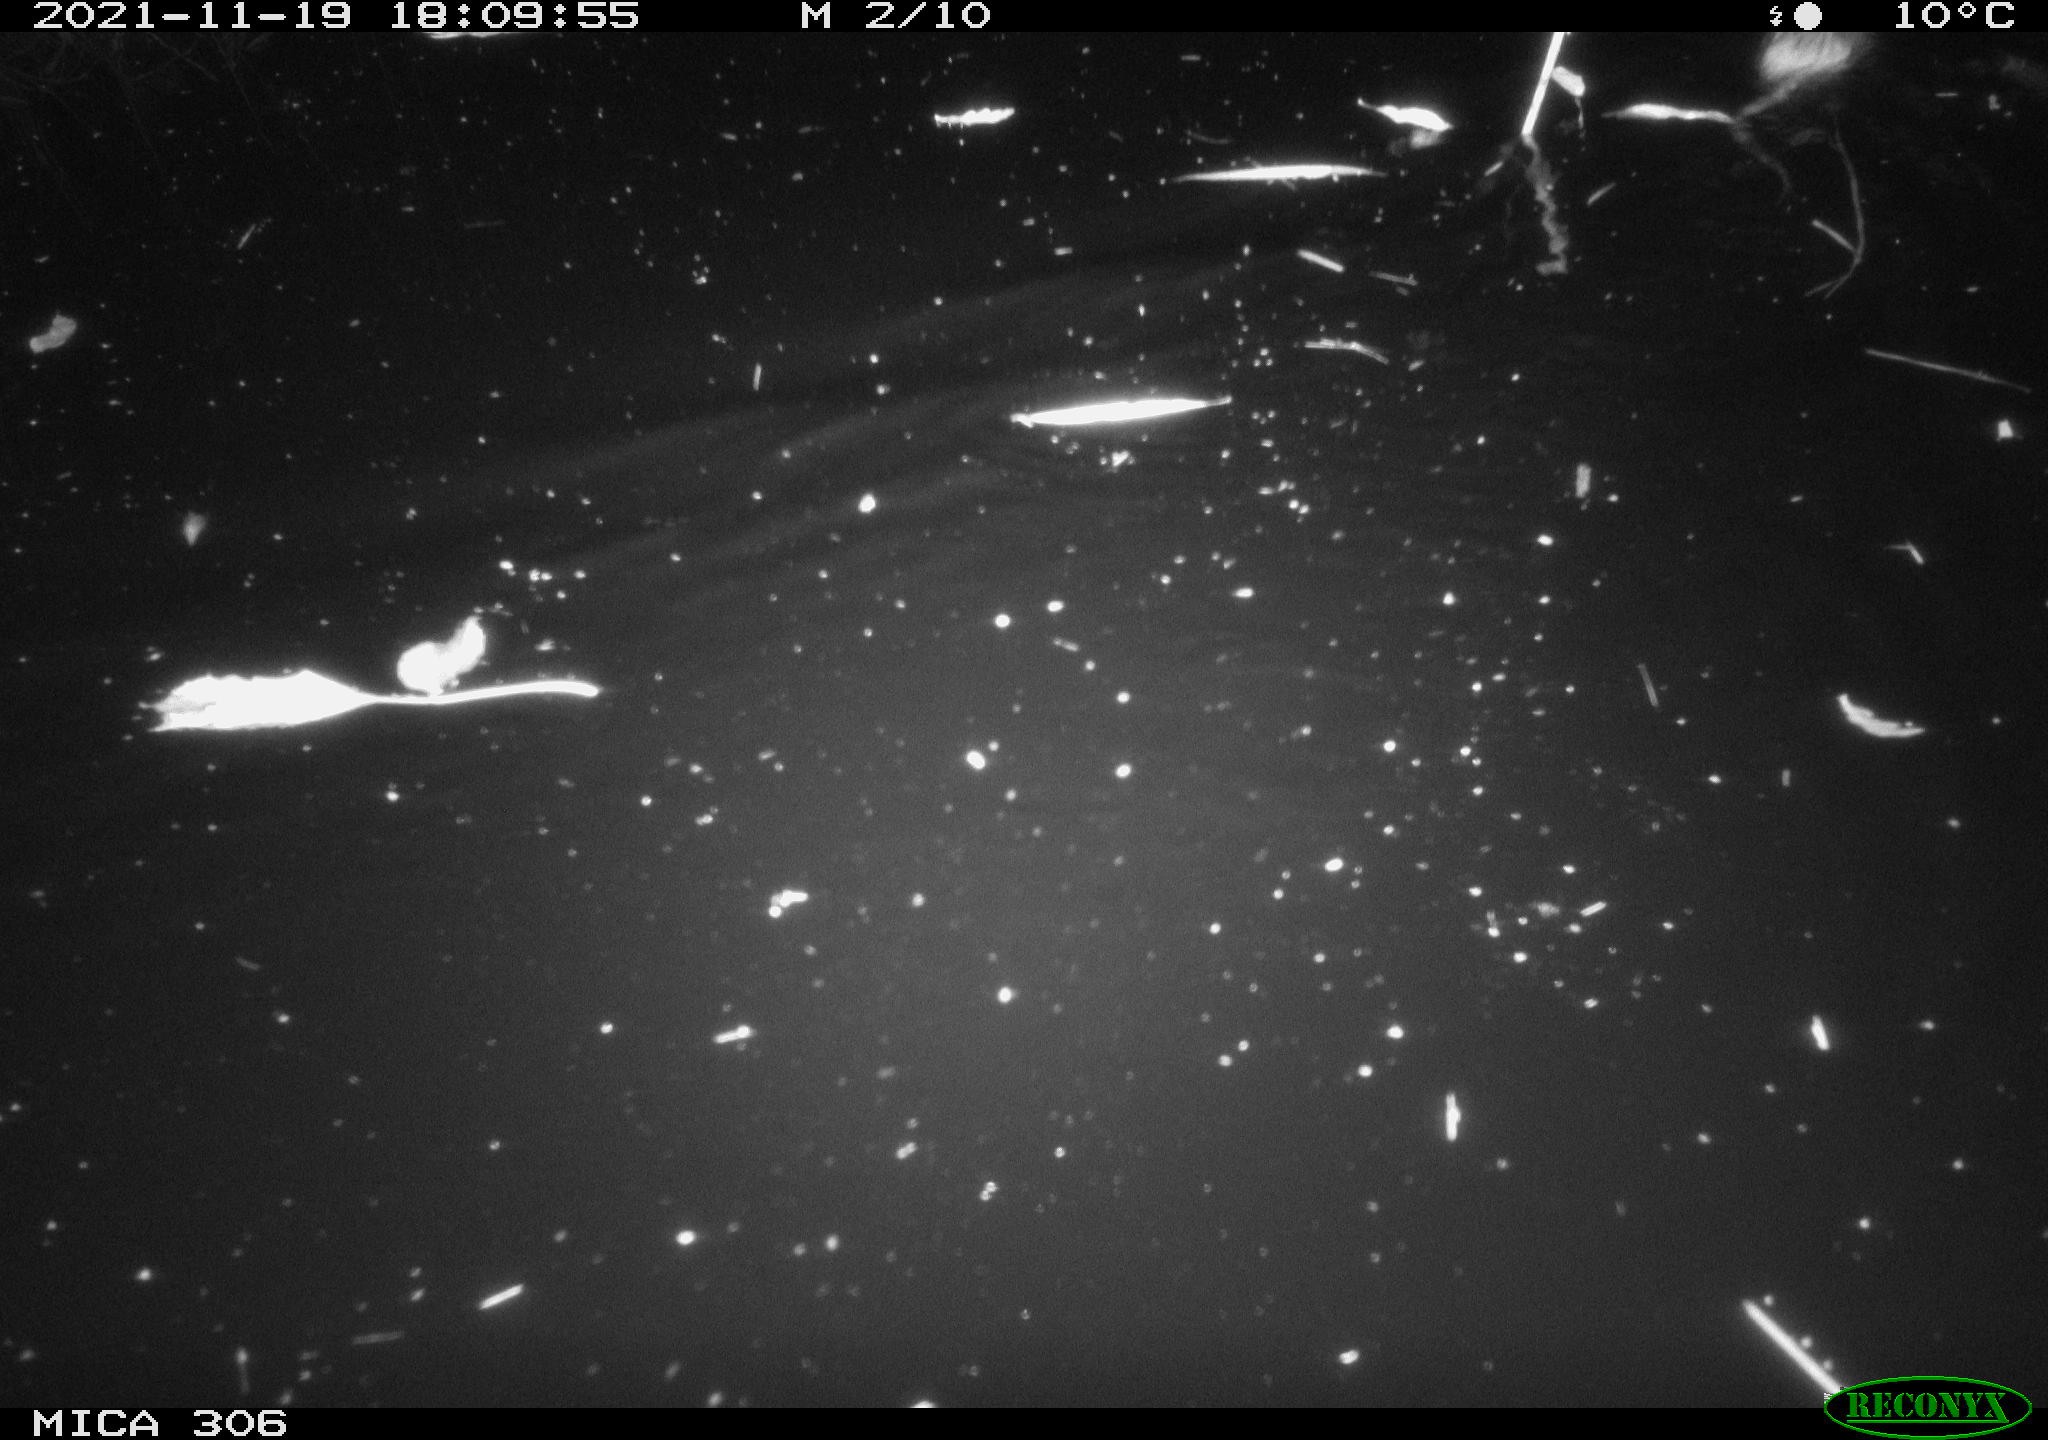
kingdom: Animalia
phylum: Chordata
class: Mammalia
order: Rodentia
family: Muridae
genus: Rattus
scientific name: Rattus norvegicus
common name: Brown rat
